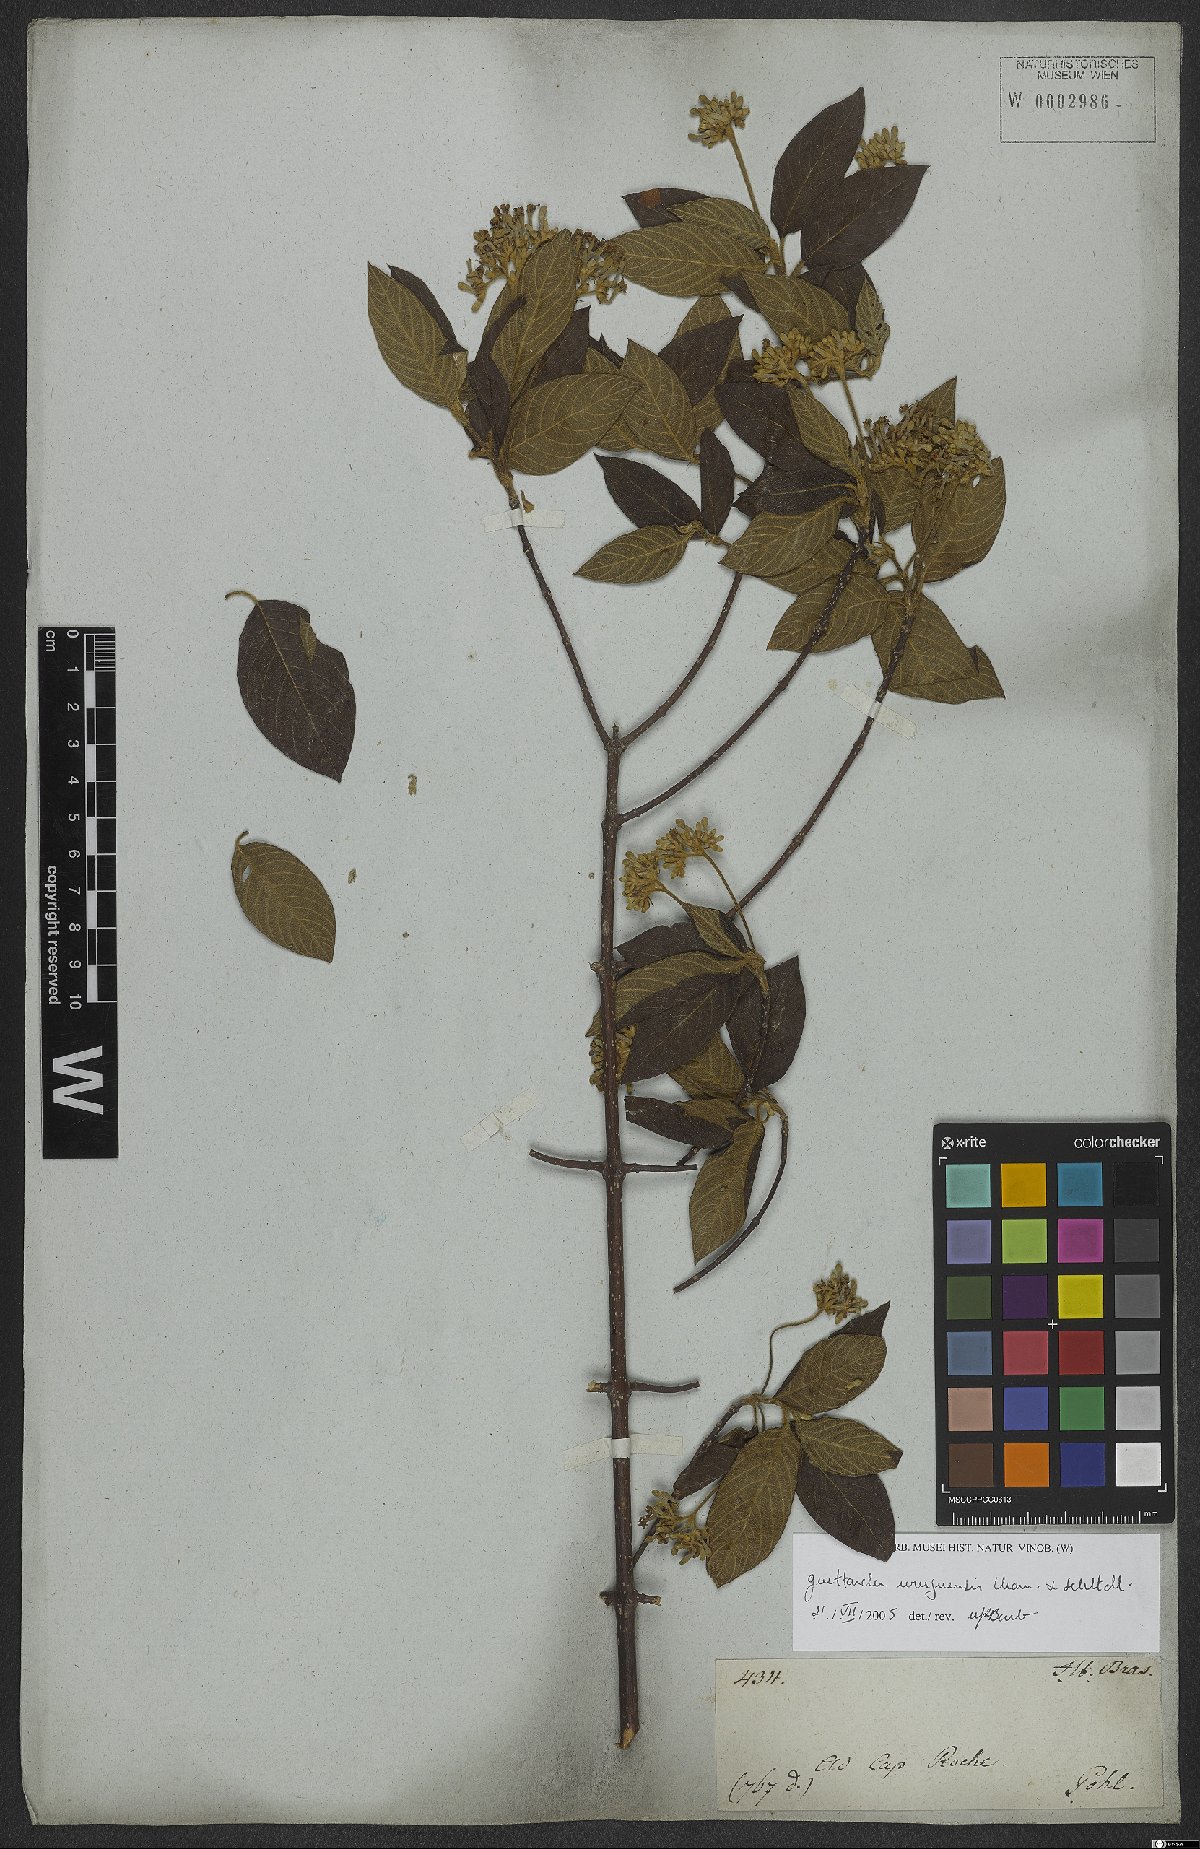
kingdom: Plantae
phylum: Tracheophyta
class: Magnoliopsida
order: Gentianales
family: Rubiaceae
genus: Guettarda
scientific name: Guettarda uruguensis
